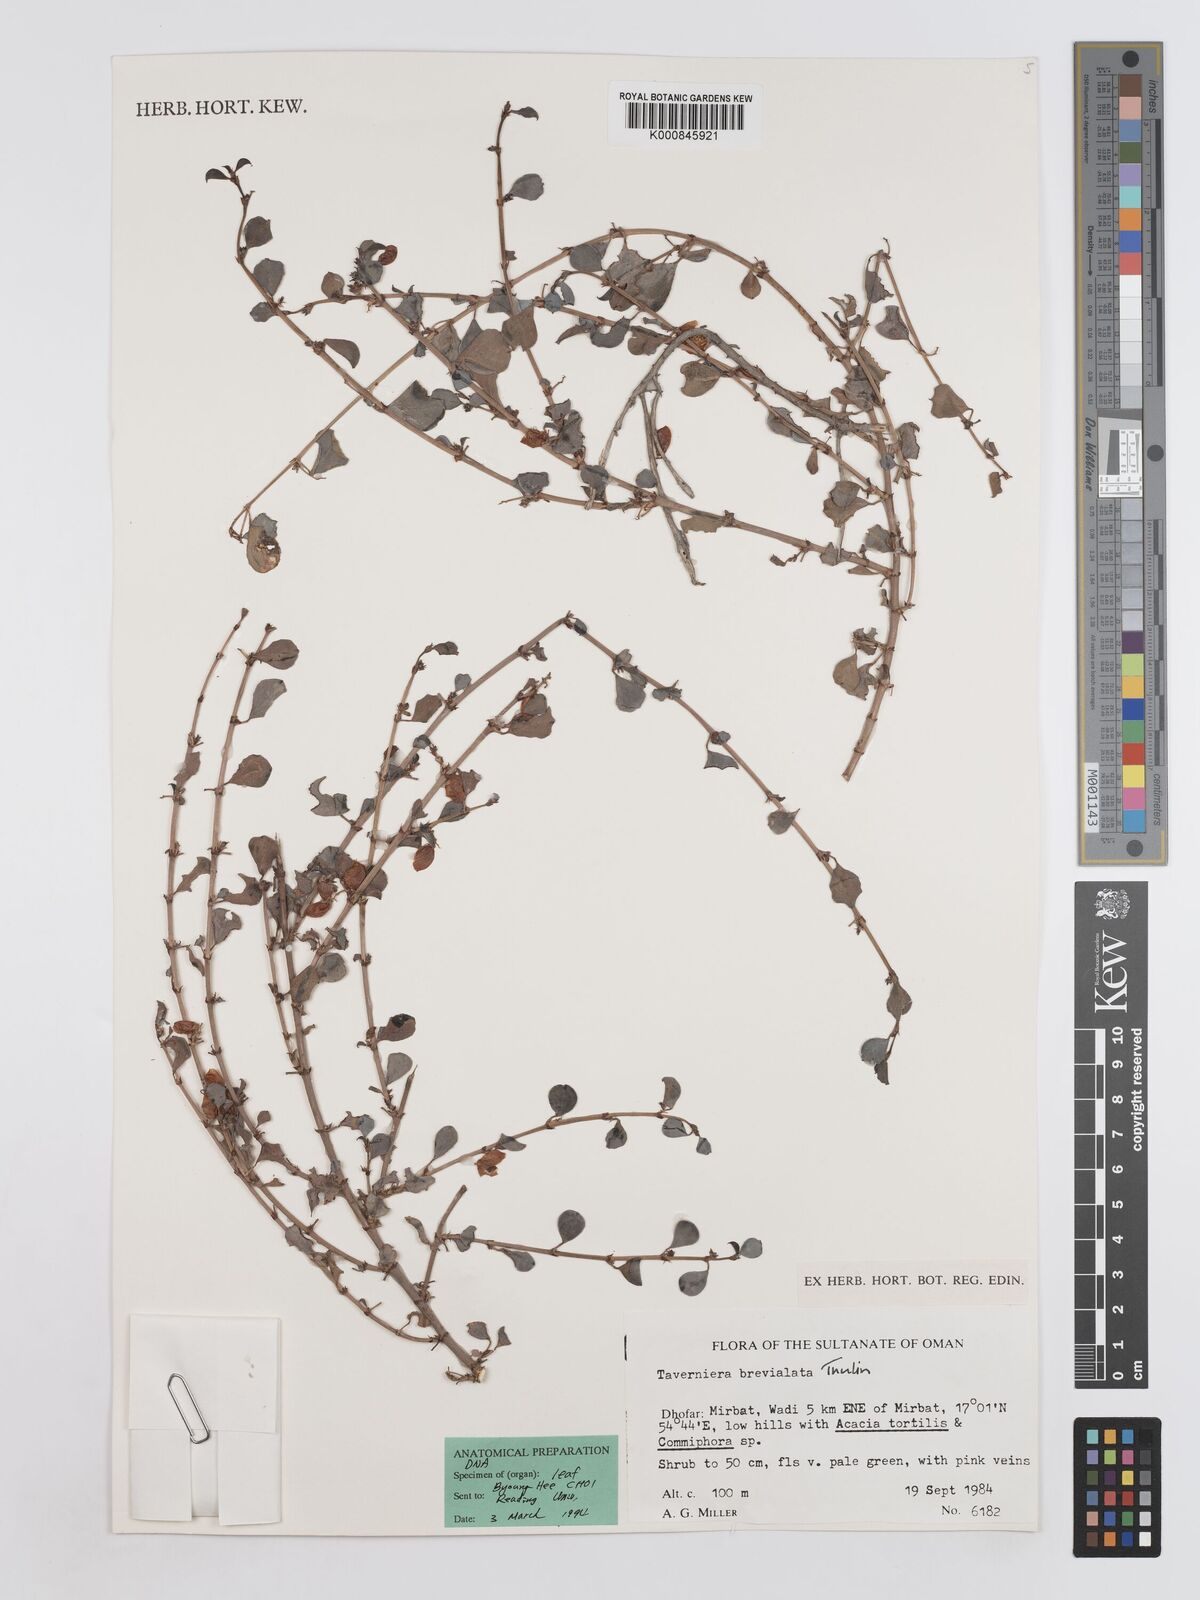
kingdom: Plantae
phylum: Tracheophyta
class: Magnoliopsida
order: Fabales
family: Fabaceae
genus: Taverniera
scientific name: Taverniera brevialata
